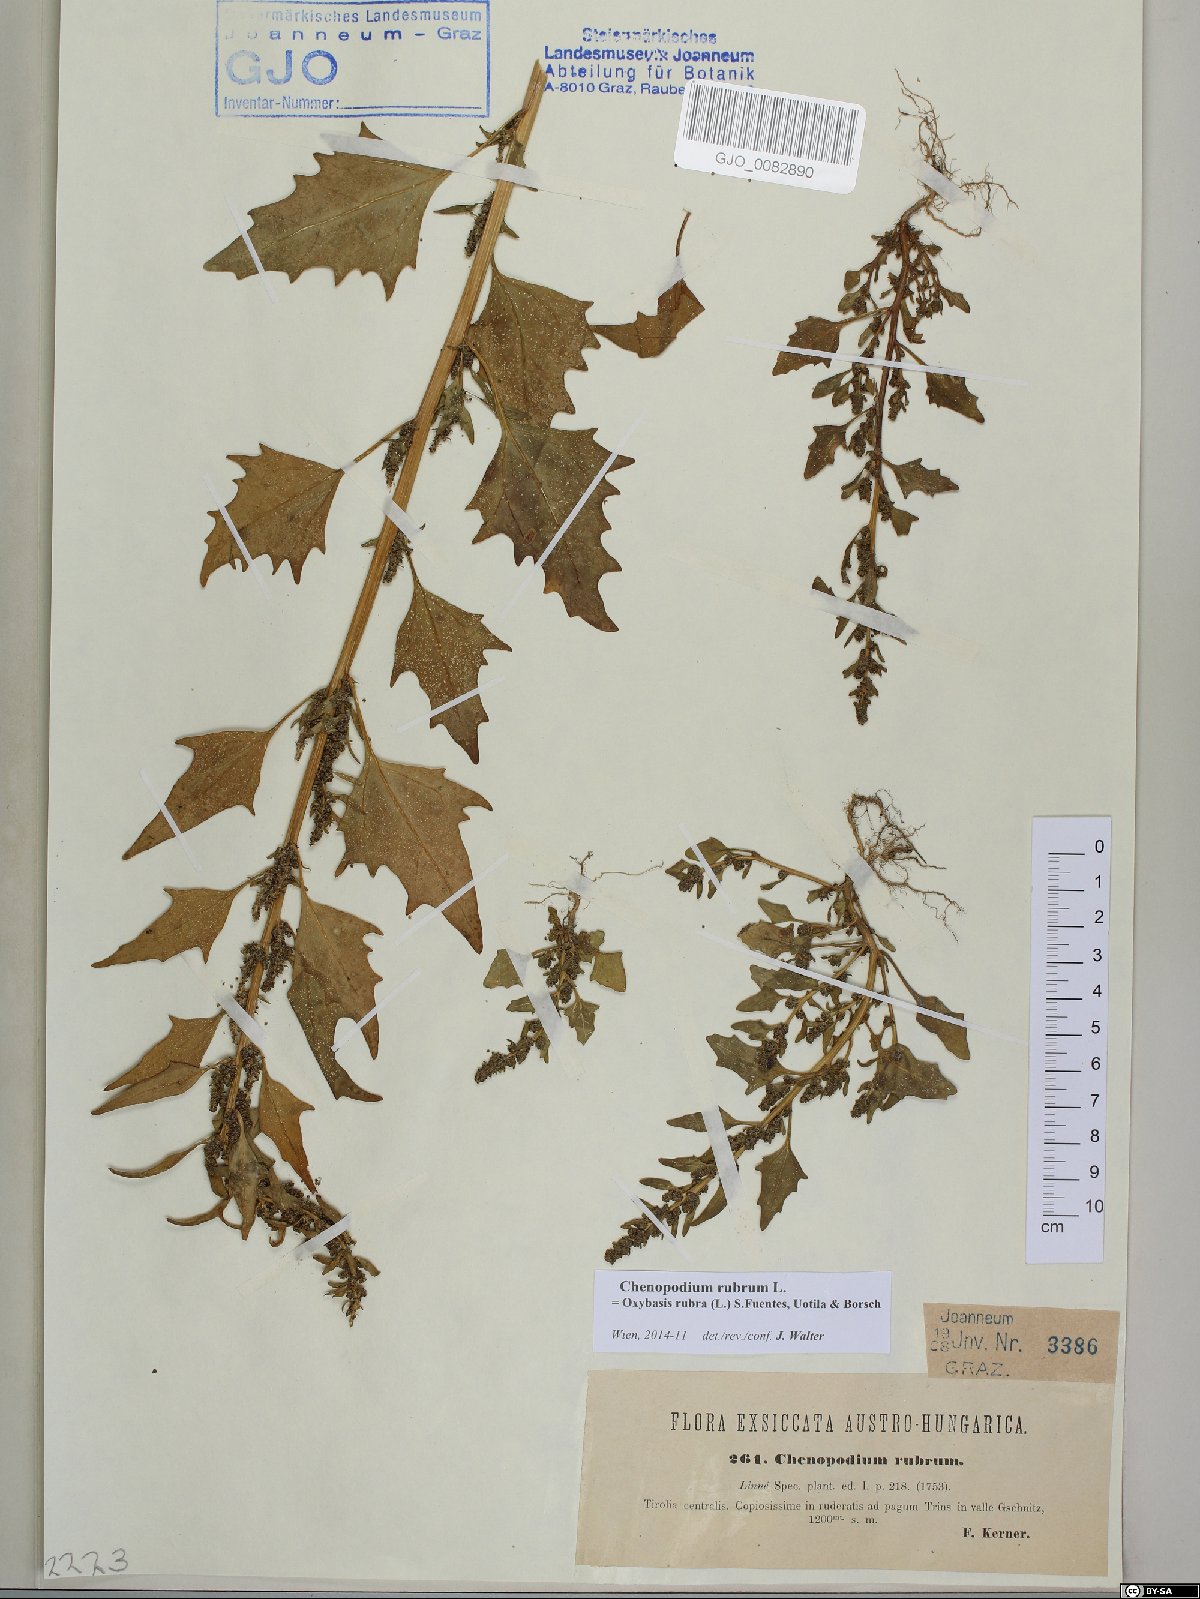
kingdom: Plantae
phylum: Tracheophyta
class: Magnoliopsida
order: Caryophyllales
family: Amaranthaceae
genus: Oxybasis
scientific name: Oxybasis rubra
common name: Red goosefoot
